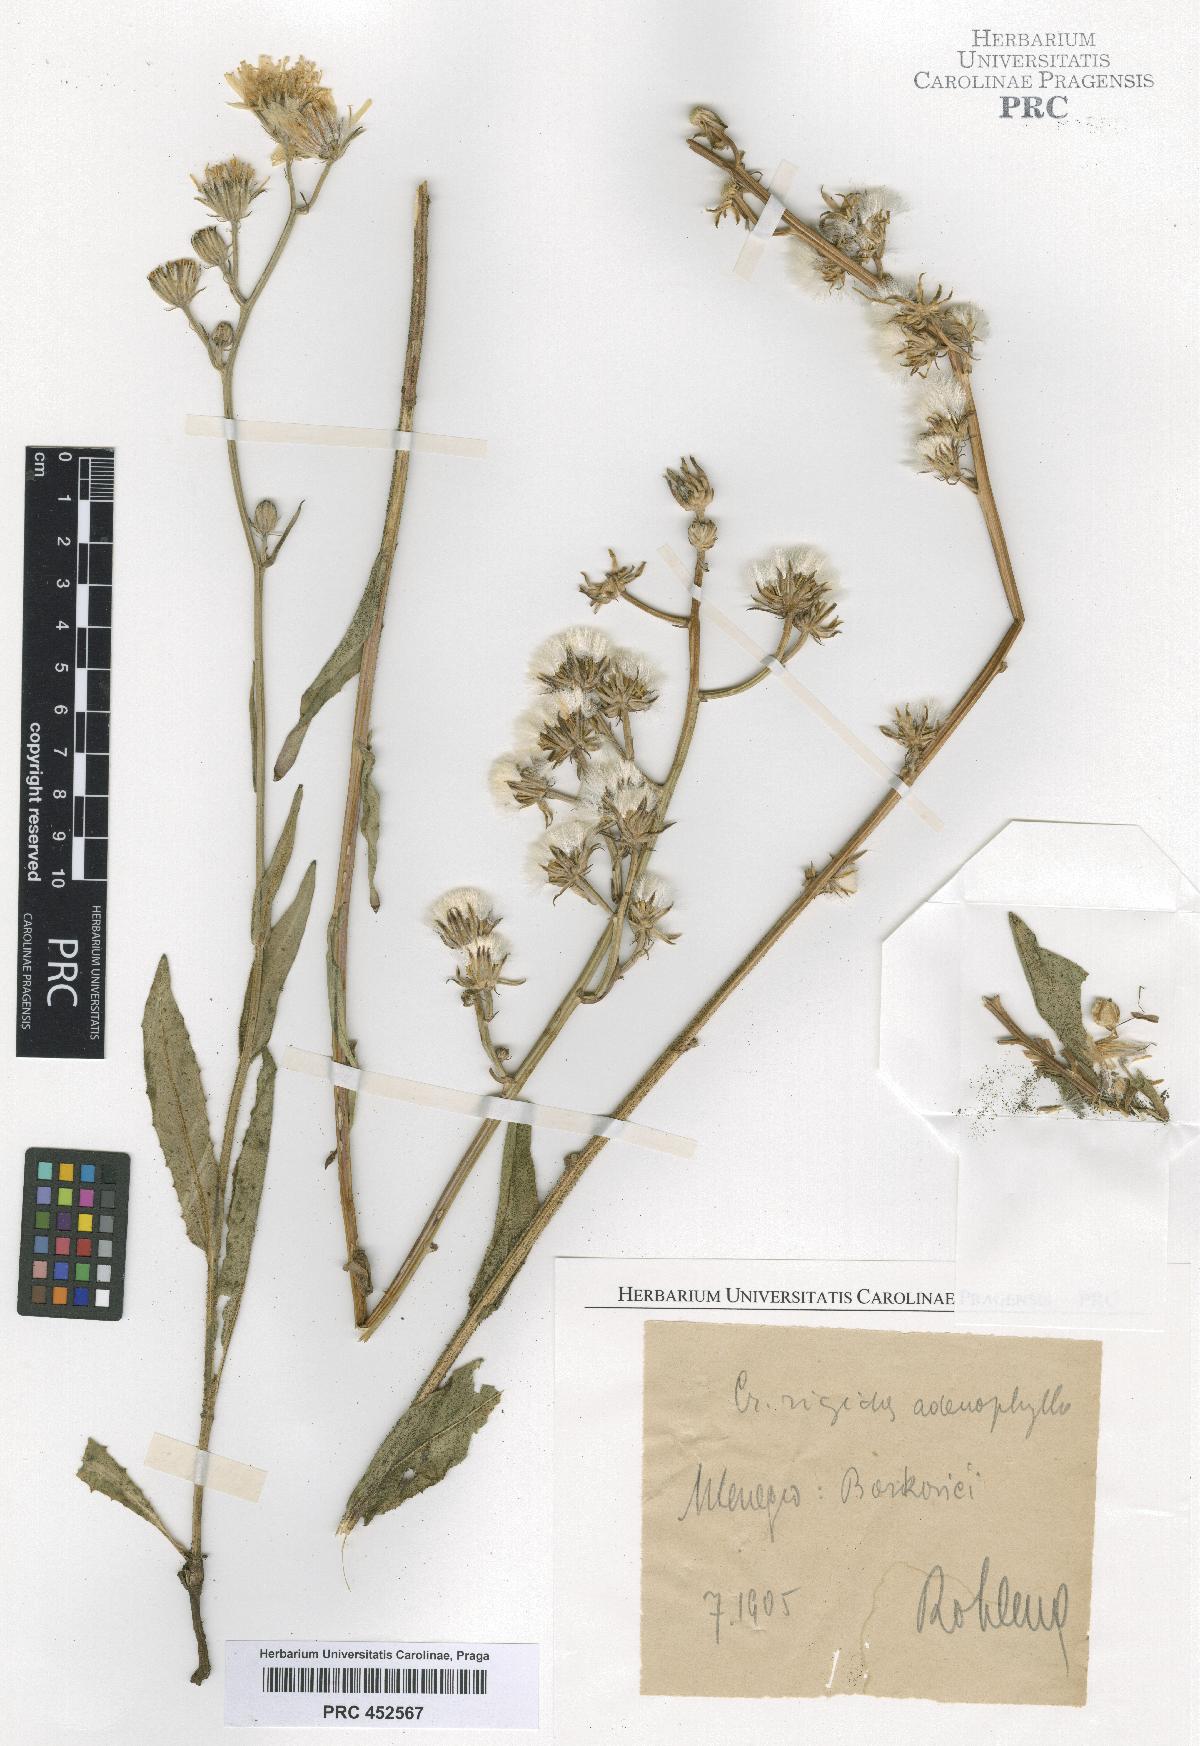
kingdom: Plantae
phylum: Tracheophyta
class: Magnoliopsida
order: Asterales
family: Asteraceae
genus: Crepis
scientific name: Crepis pannonica
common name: Pasture hawksbeard
